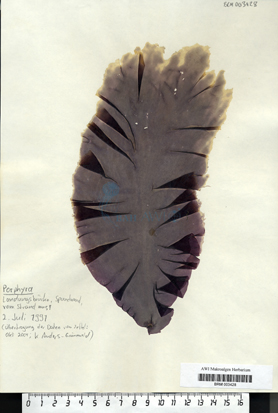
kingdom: Plantae
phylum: Rhodophyta
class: Bangiophyceae
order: Bangiales
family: Bangiaceae
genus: Porphyra
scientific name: Porphyra
